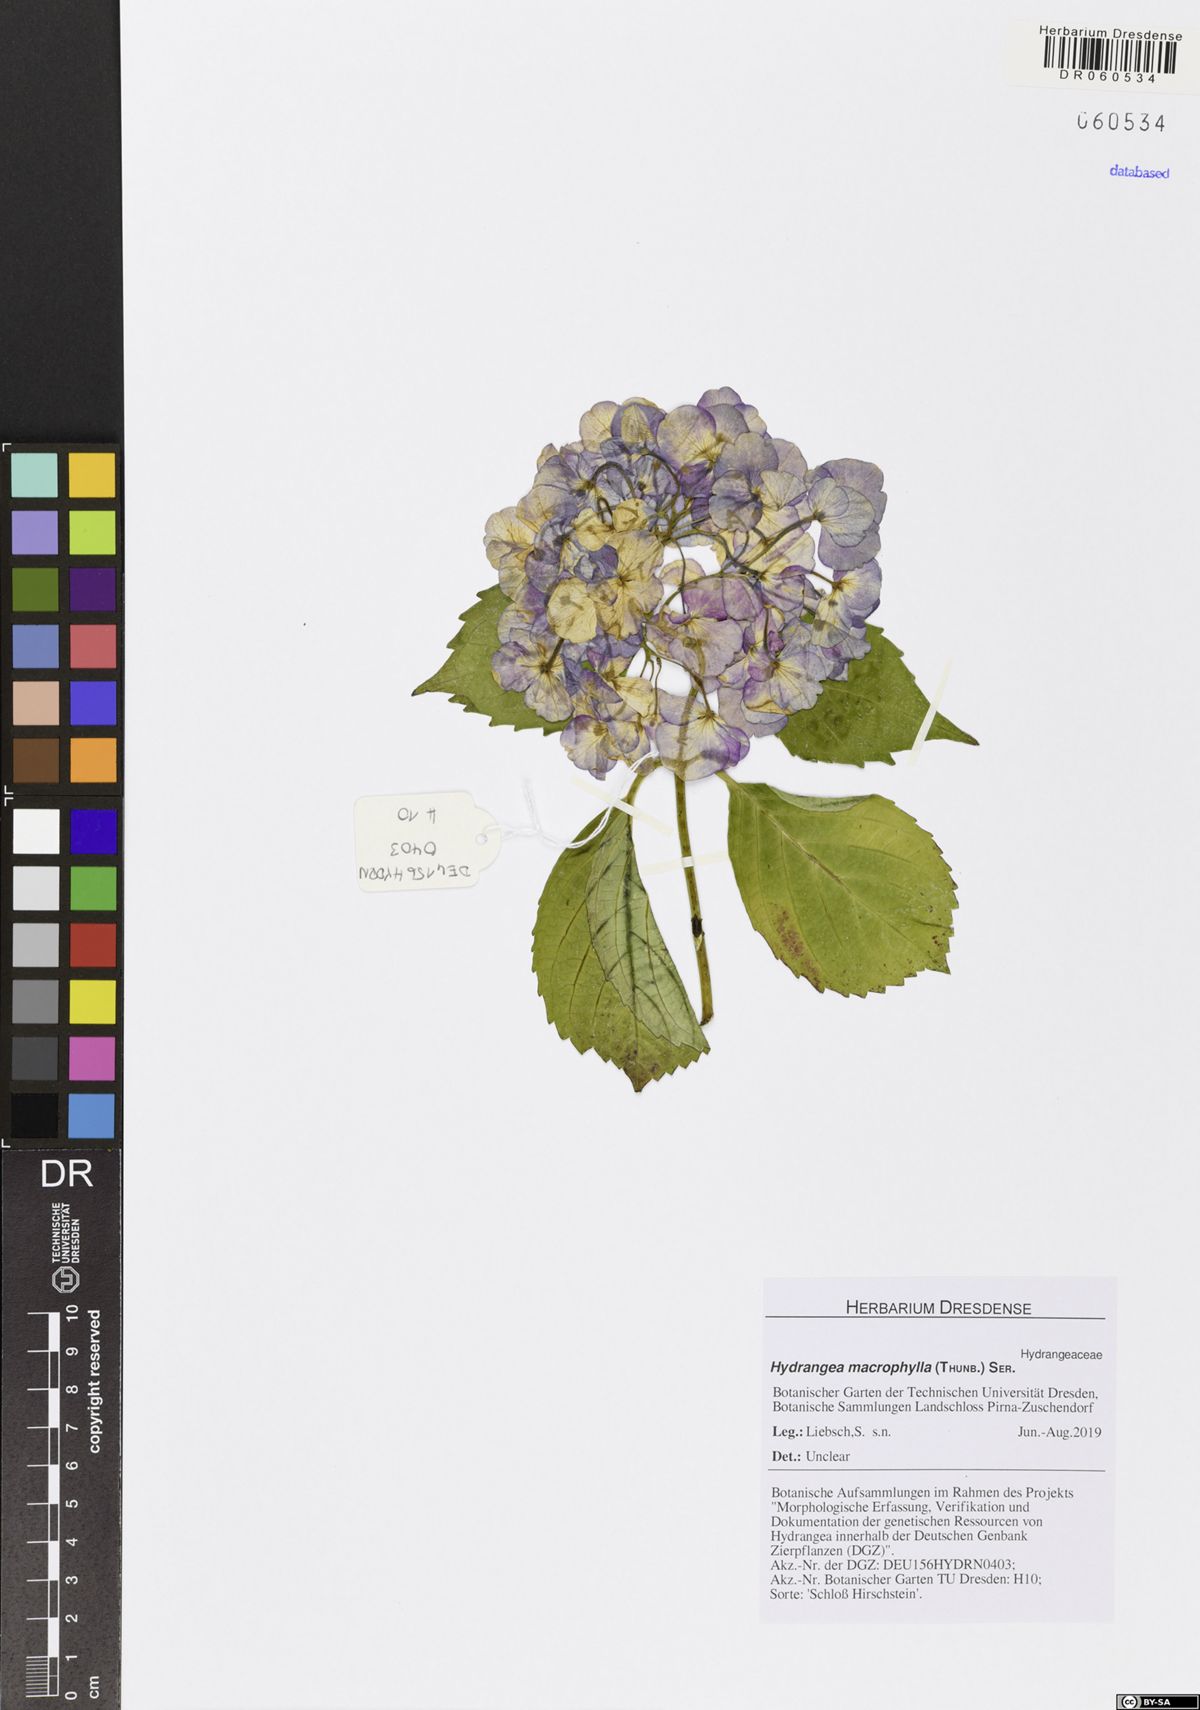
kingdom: Plantae
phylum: Tracheophyta
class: Magnoliopsida
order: Cornales
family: Hydrangeaceae
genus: Hydrangea
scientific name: Hydrangea macrophylla
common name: Hydrangea
